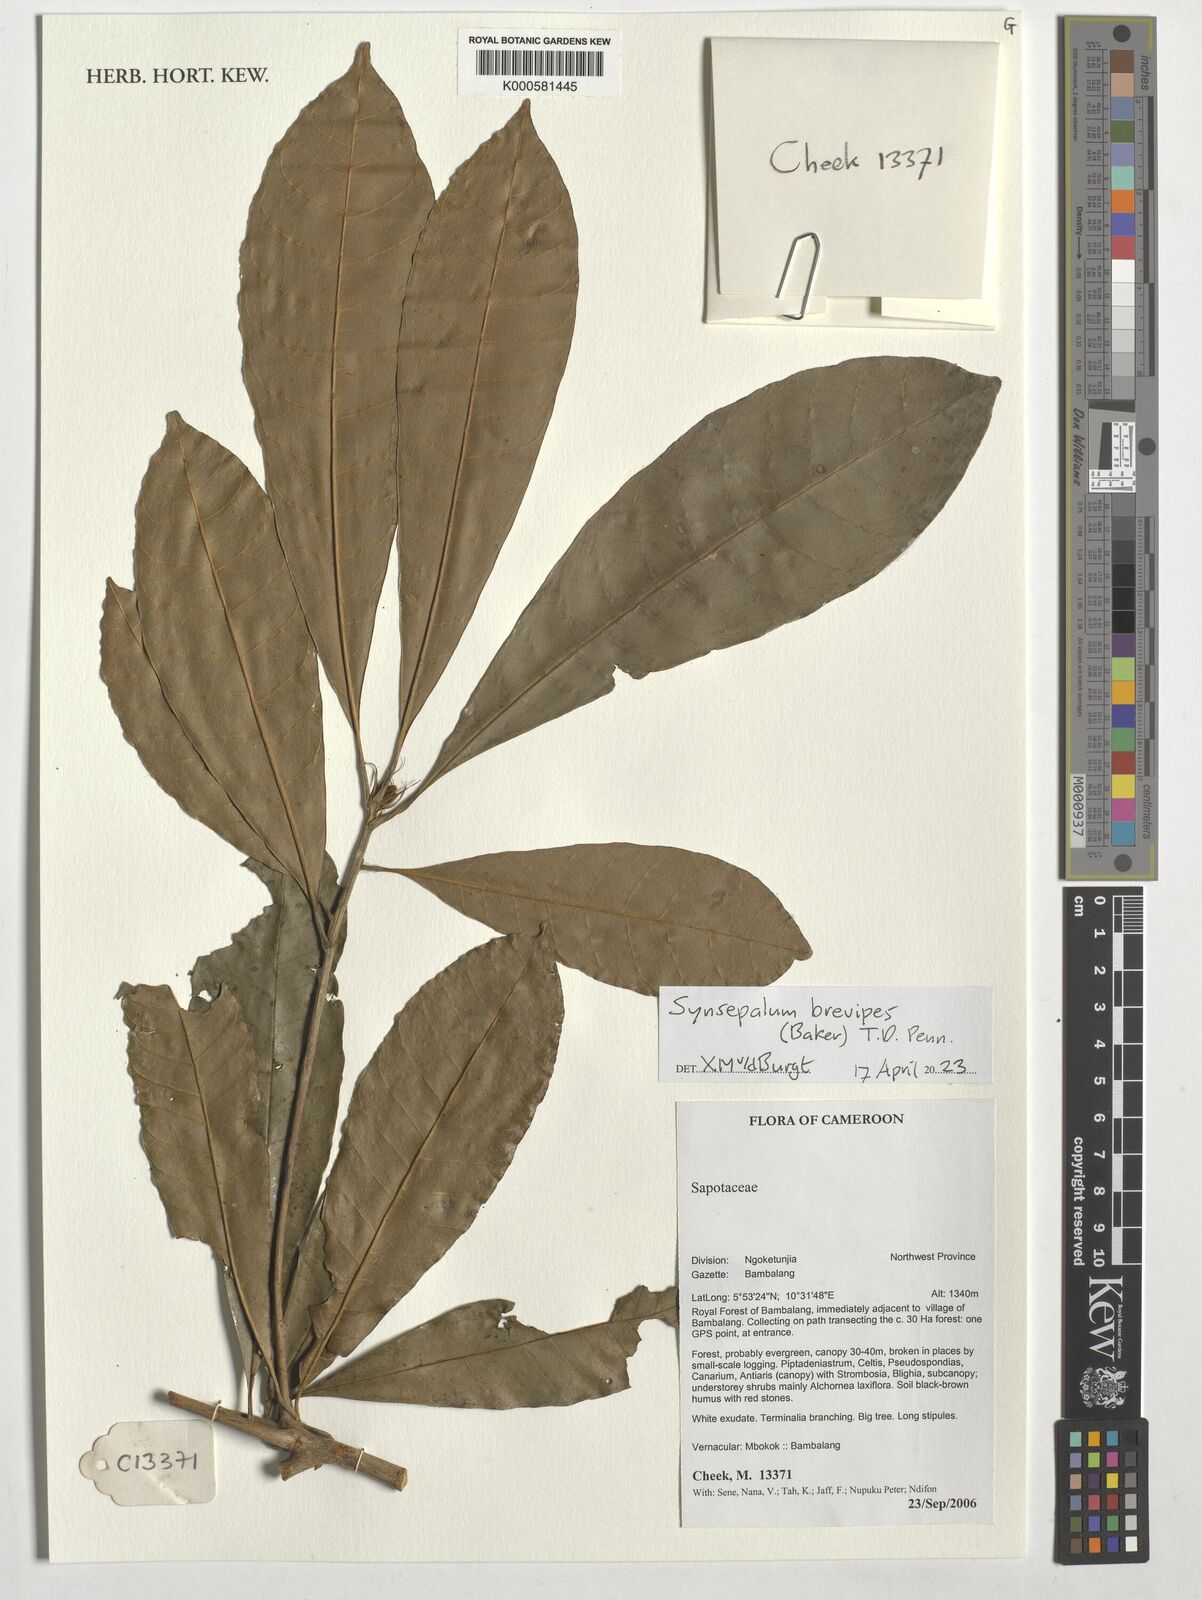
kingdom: Plantae
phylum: Tracheophyta
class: Magnoliopsida
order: Ericales
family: Sapotaceae
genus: Synsepalum
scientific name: Synsepalum brevipes
